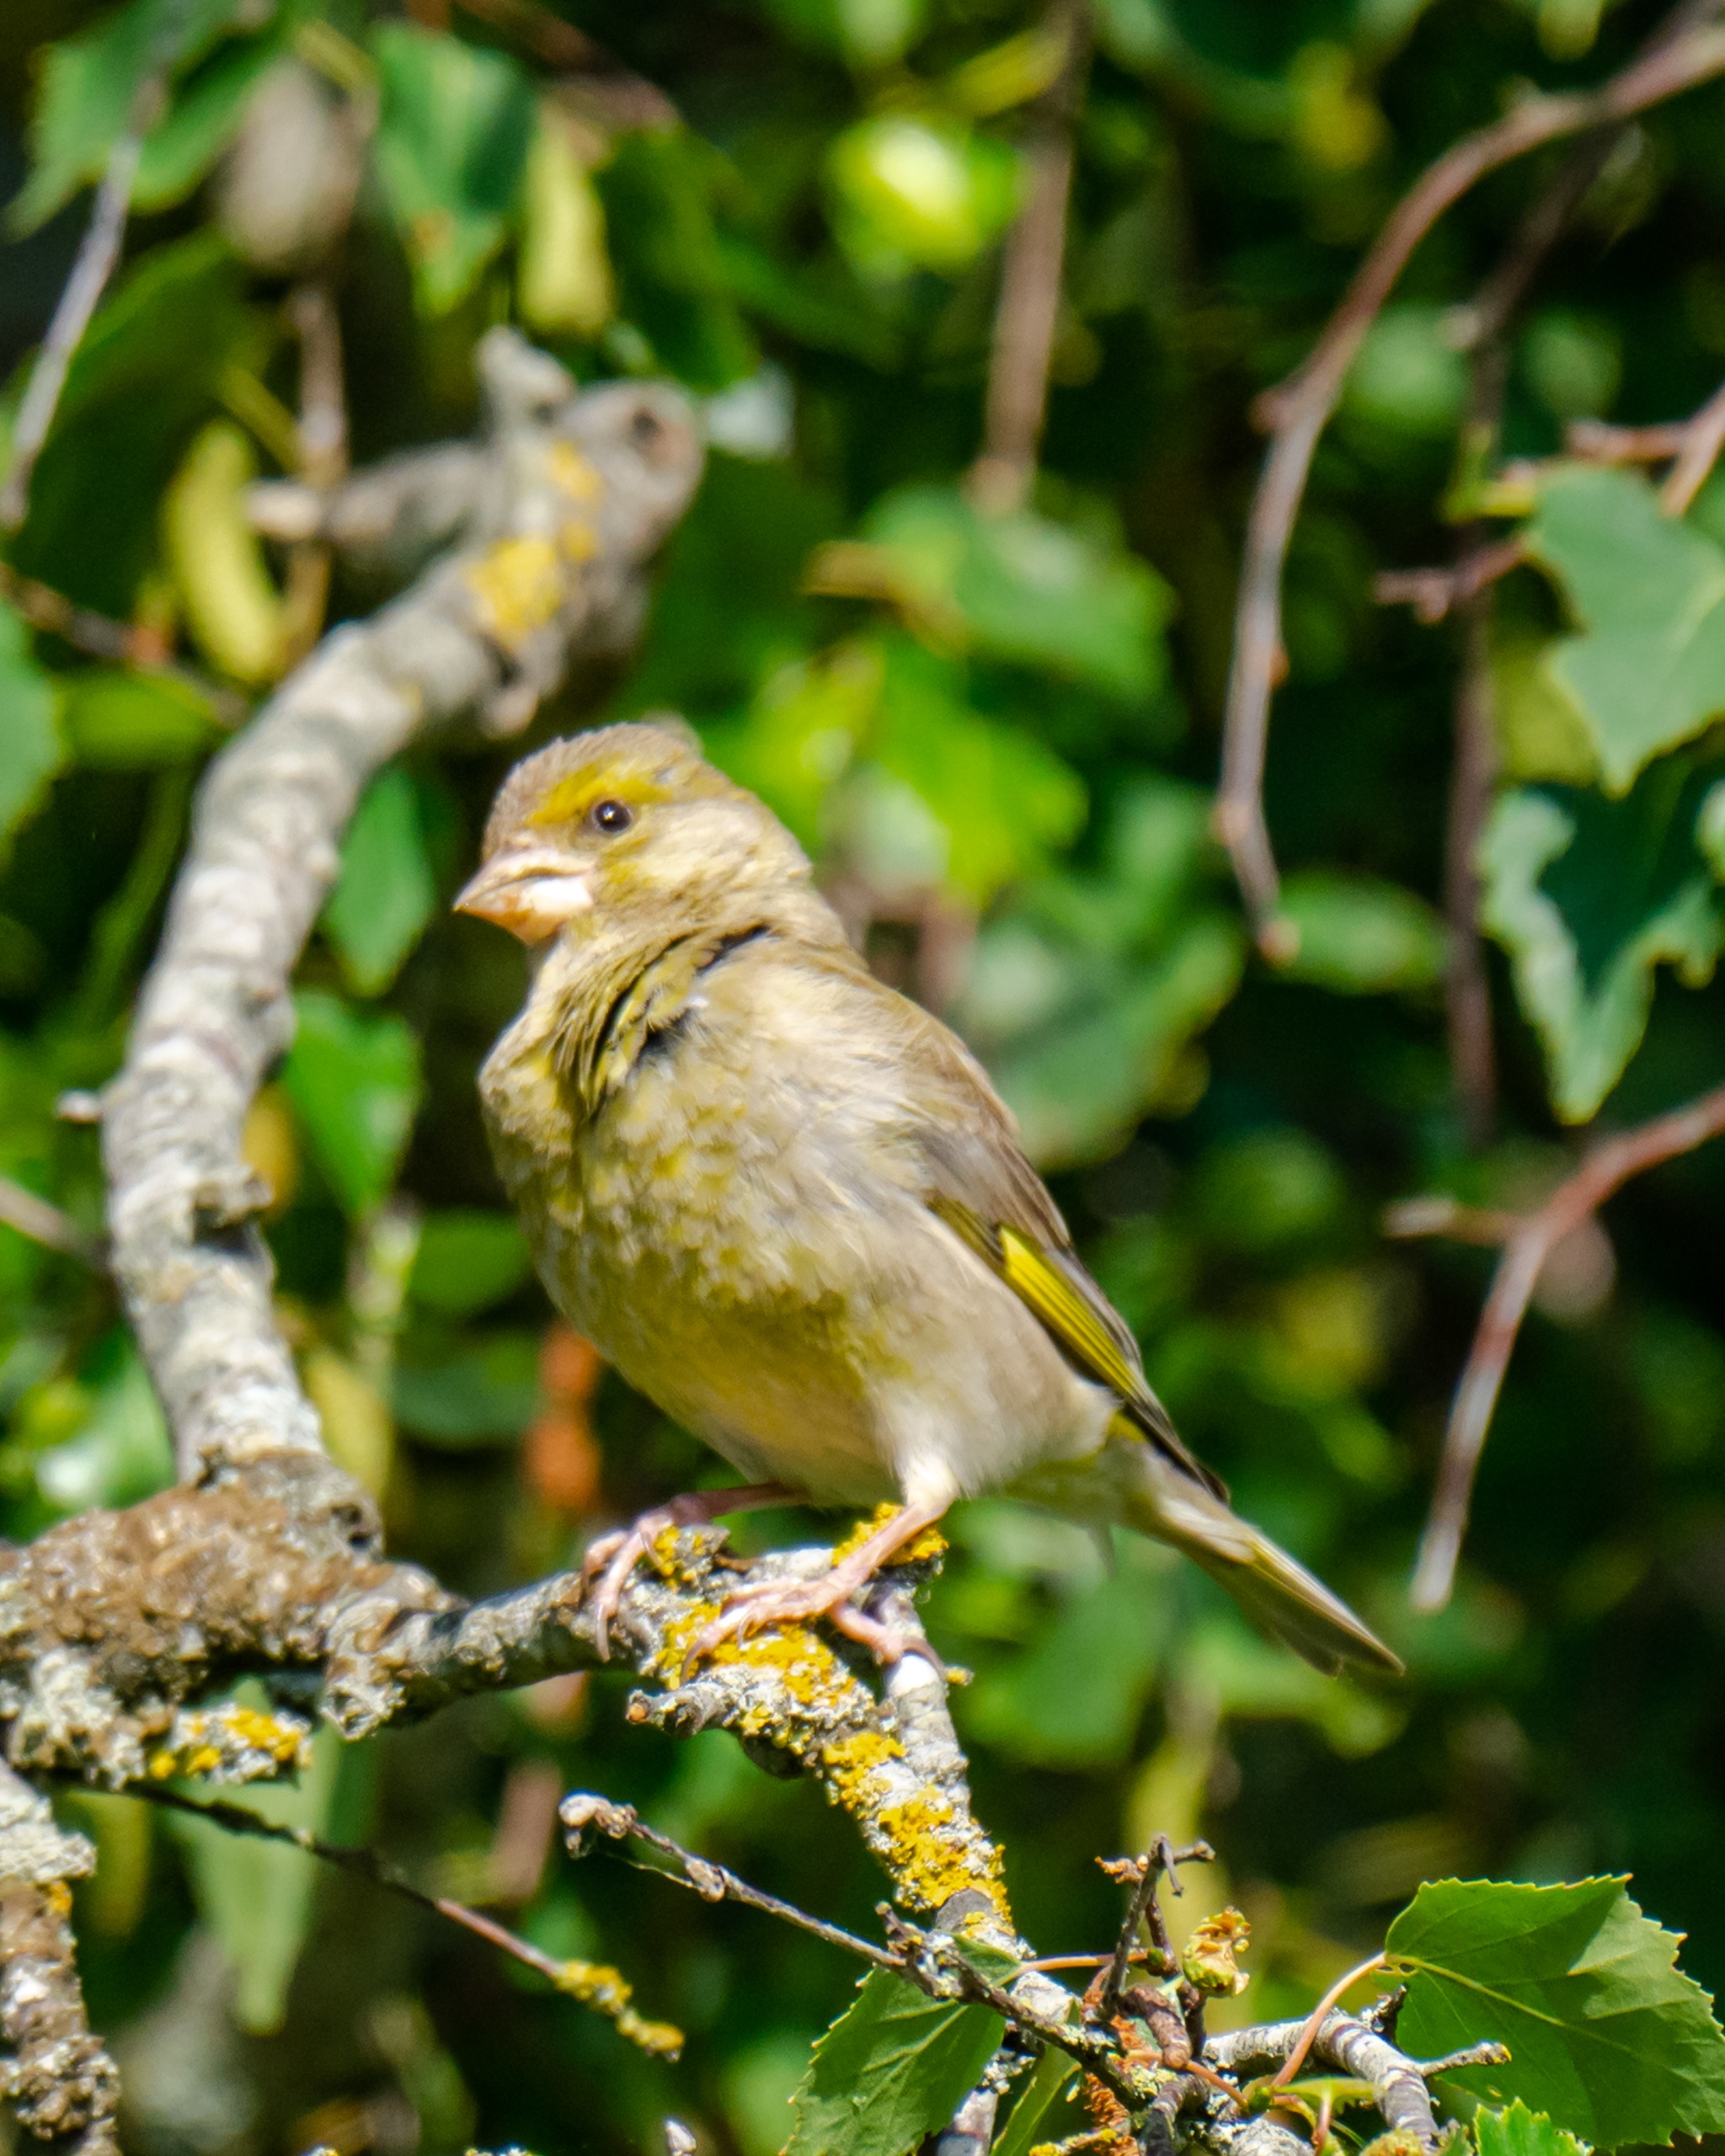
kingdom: Plantae
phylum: Tracheophyta
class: Liliopsida
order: Poales
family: Poaceae
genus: Chloris
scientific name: Chloris chloris
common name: Grønirisk
